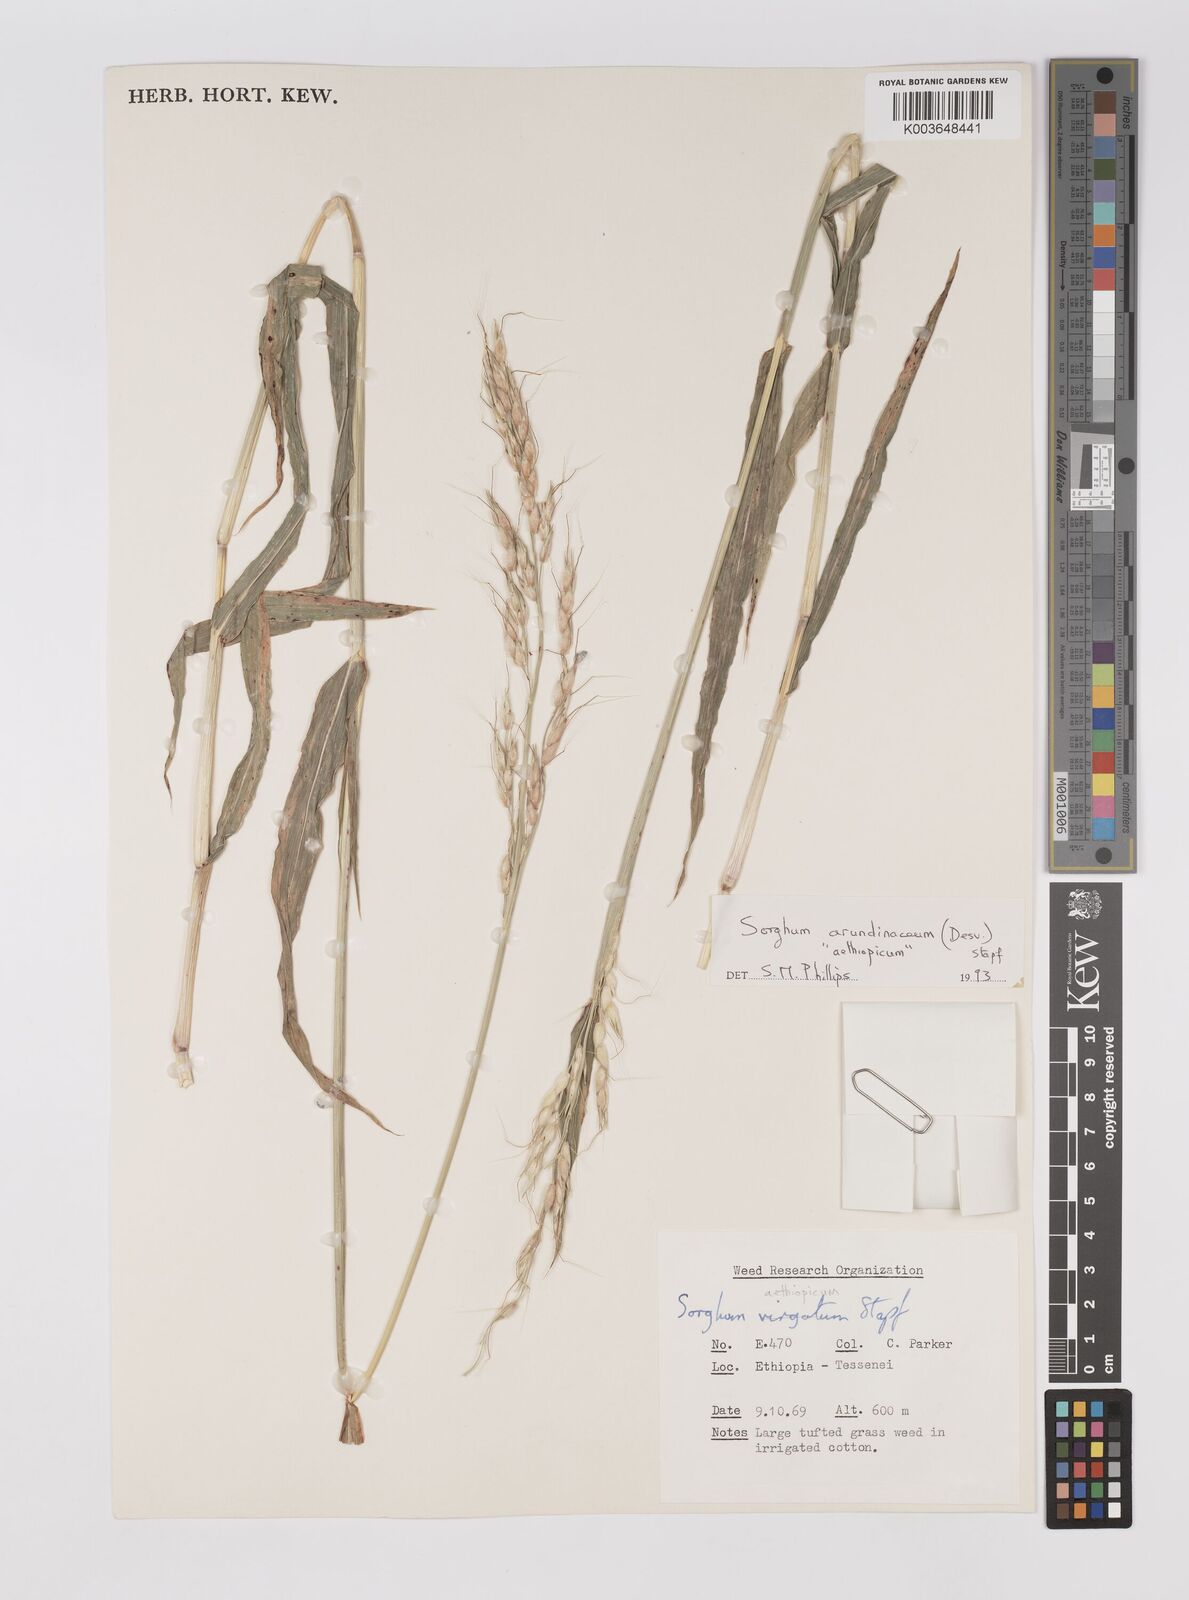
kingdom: Plantae
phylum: Tracheophyta
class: Liliopsida
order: Poales
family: Poaceae
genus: Sorghum
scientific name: Sorghum arundinaceum
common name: Sorghum
